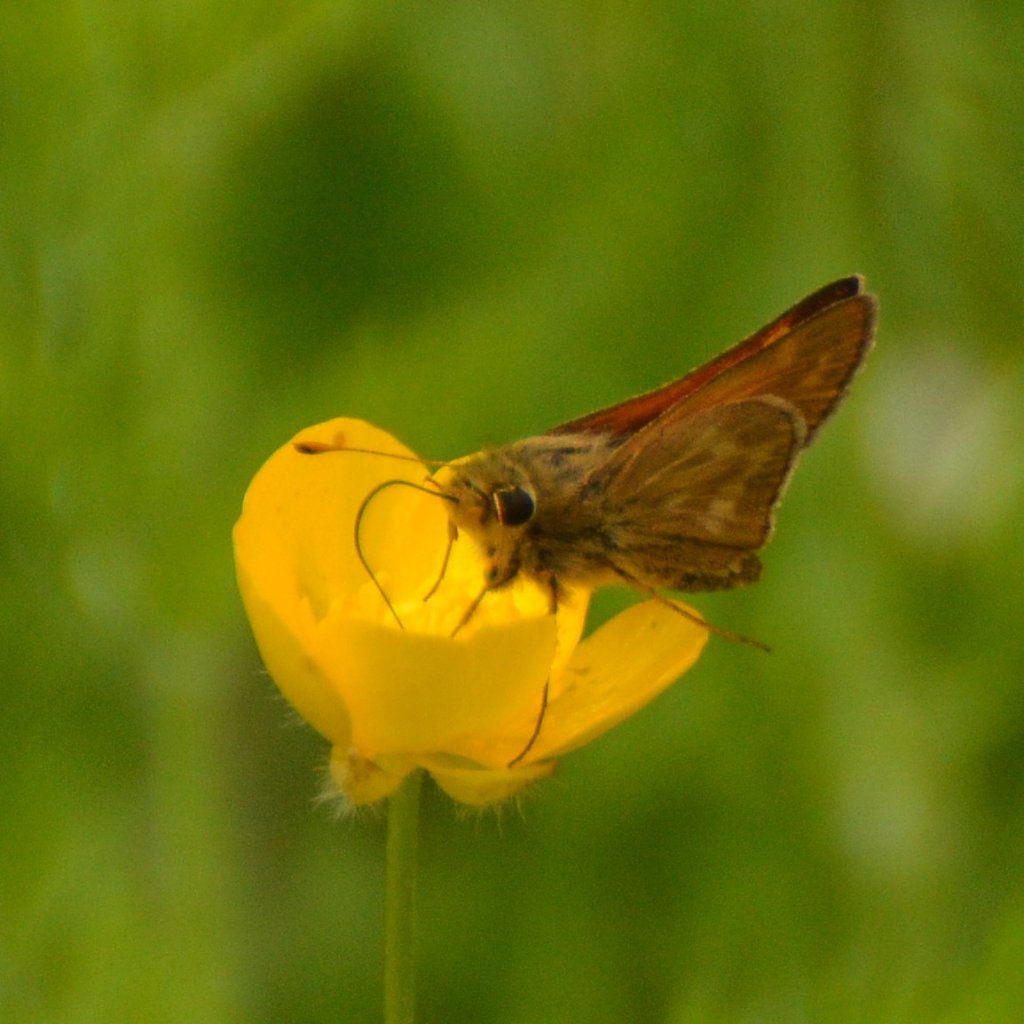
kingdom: Animalia
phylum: Arthropoda
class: Insecta
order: Lepidoptera
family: Hesperiidae
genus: Hesperia
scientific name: Hesperia sassacus
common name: Sassacus Skipper
